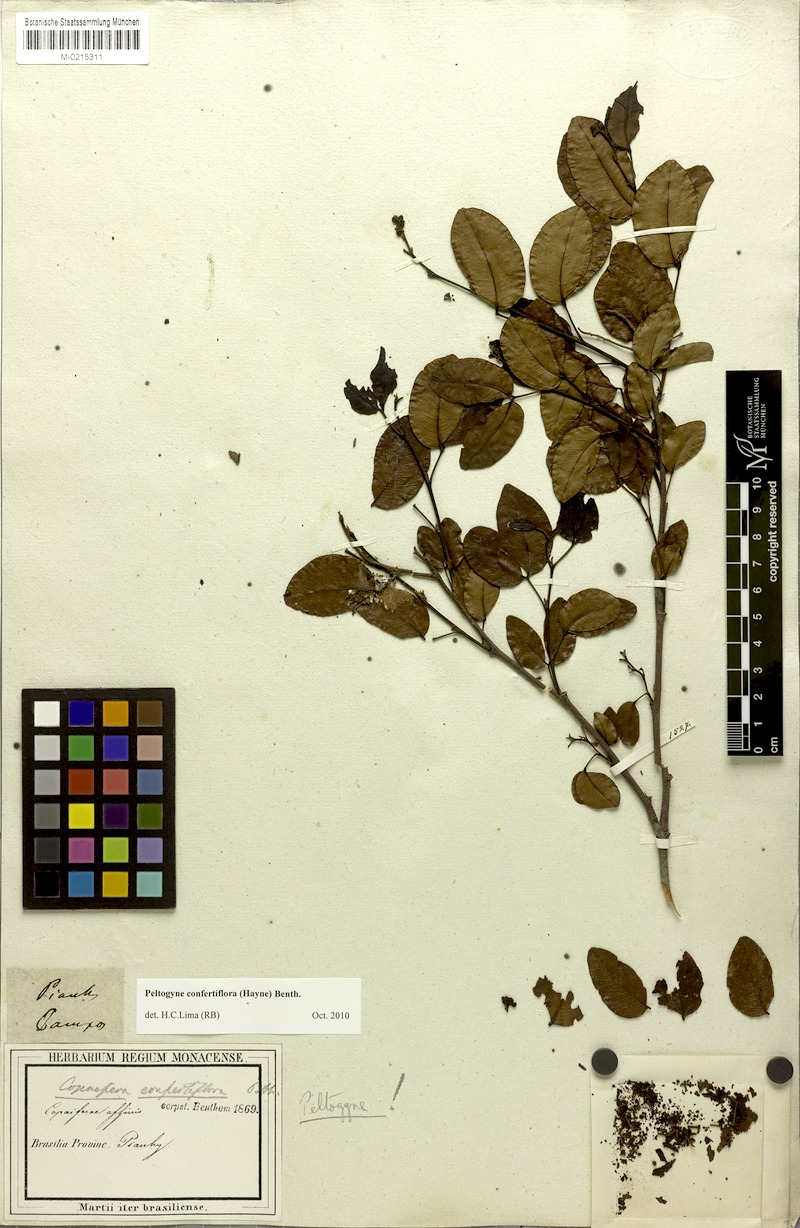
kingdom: Plantae
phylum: Tracheophyta
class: Magnoliopsida
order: Fabales
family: Fabaceae
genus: Peltogyne
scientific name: Peltogyne confertiflora
